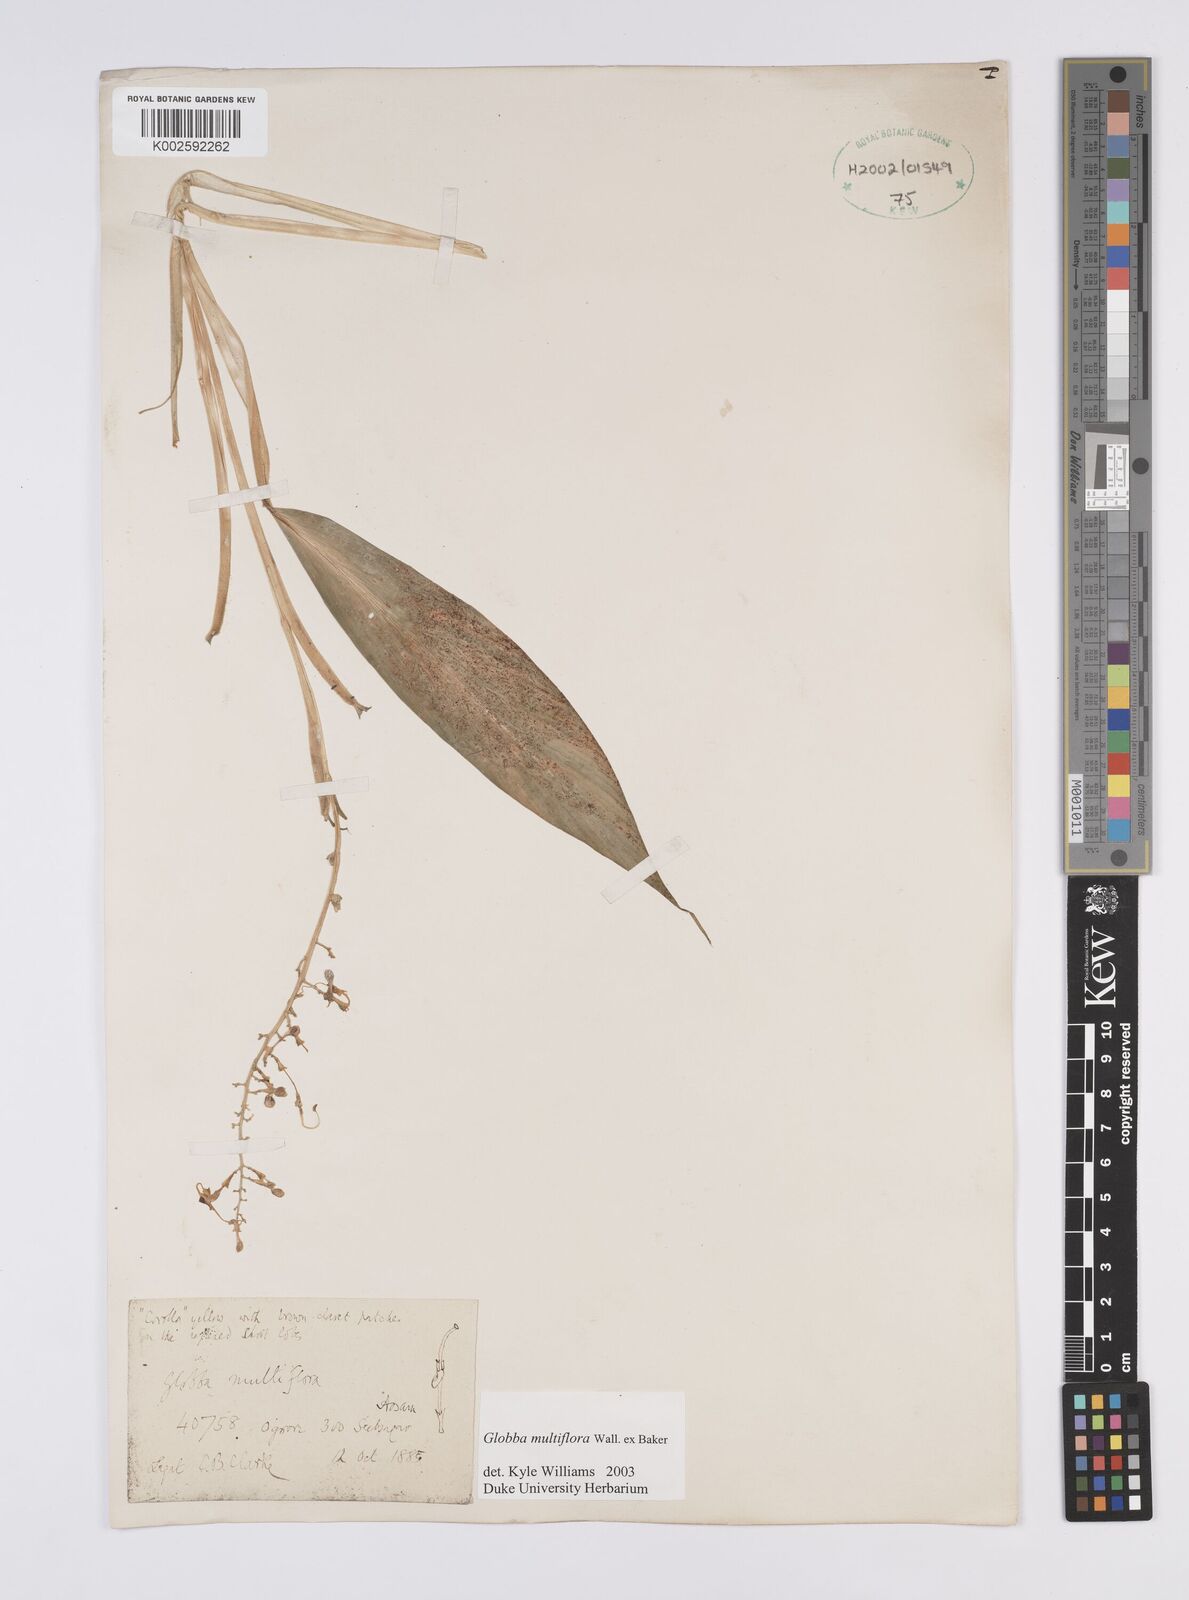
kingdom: Plantae
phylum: Tracheophyta
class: Liliopsida
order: Zingiberales
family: Zingiberaceae
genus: Globba
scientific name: Globba multiflora
